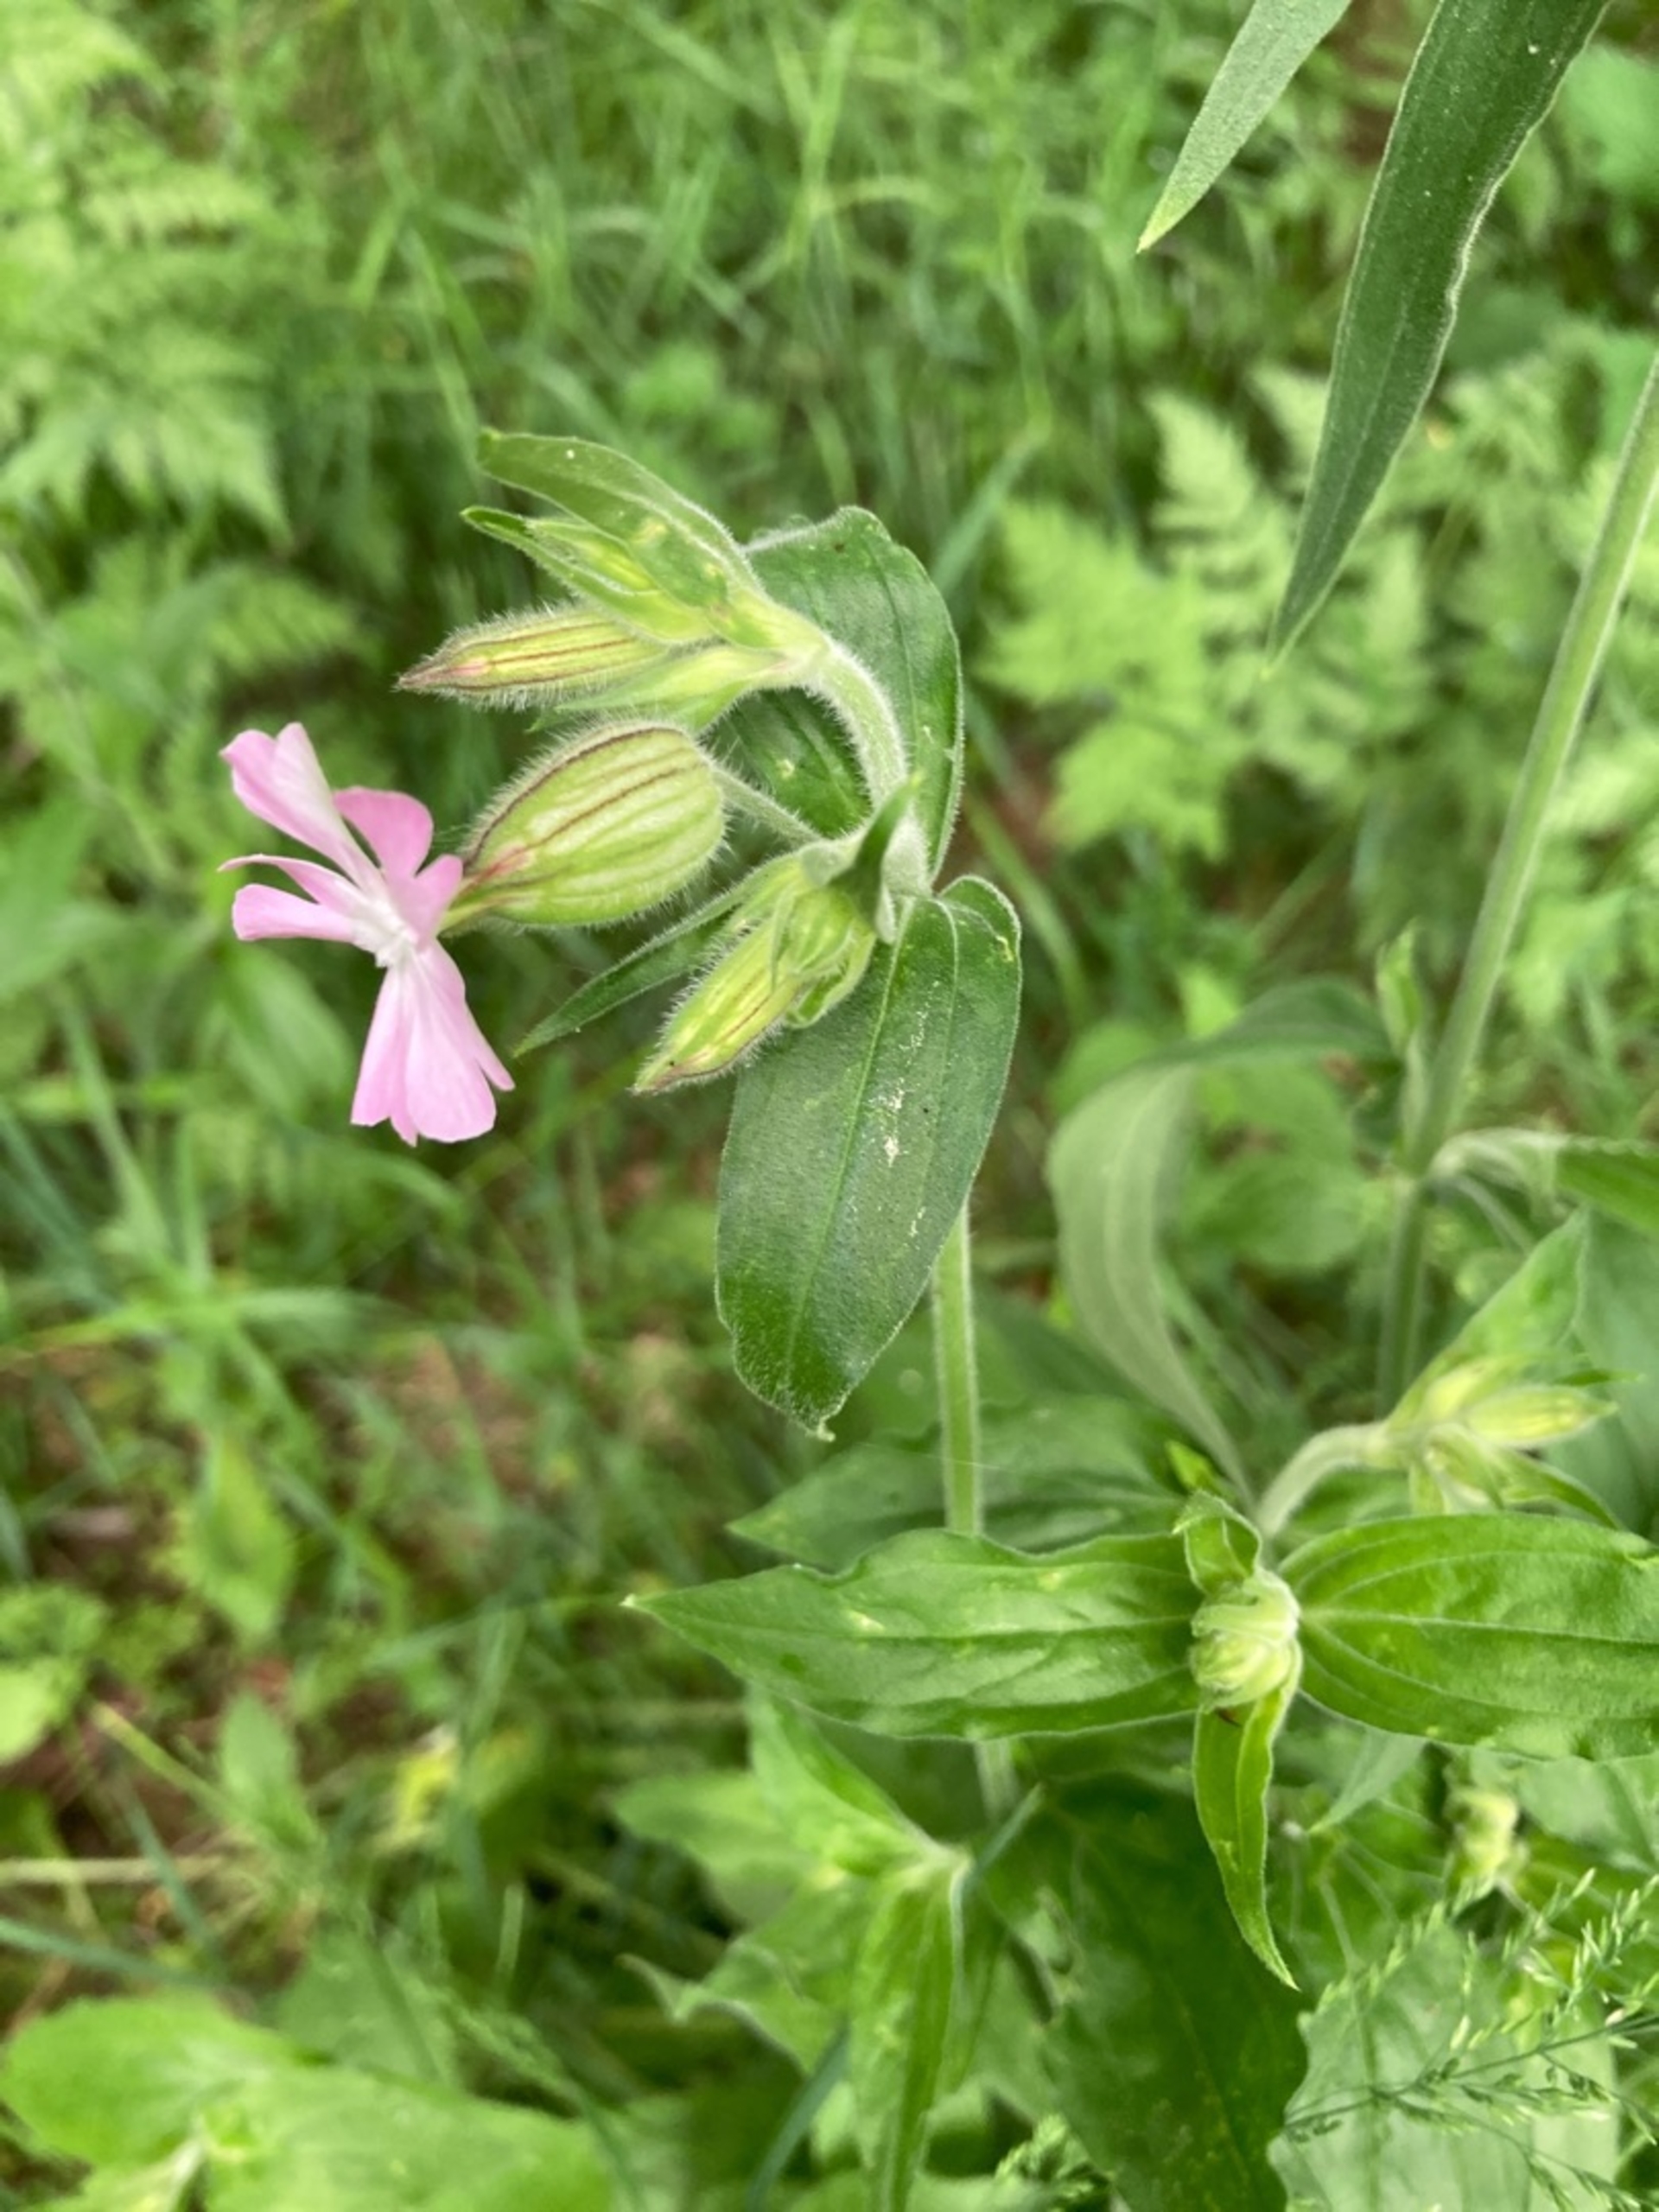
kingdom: Plantae
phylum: Tracheophyta
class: Magnoliopsida
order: Caryophyllales
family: Caryophyllaceae
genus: Silene
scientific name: Silene dioica
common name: Dagpragtstjerne
